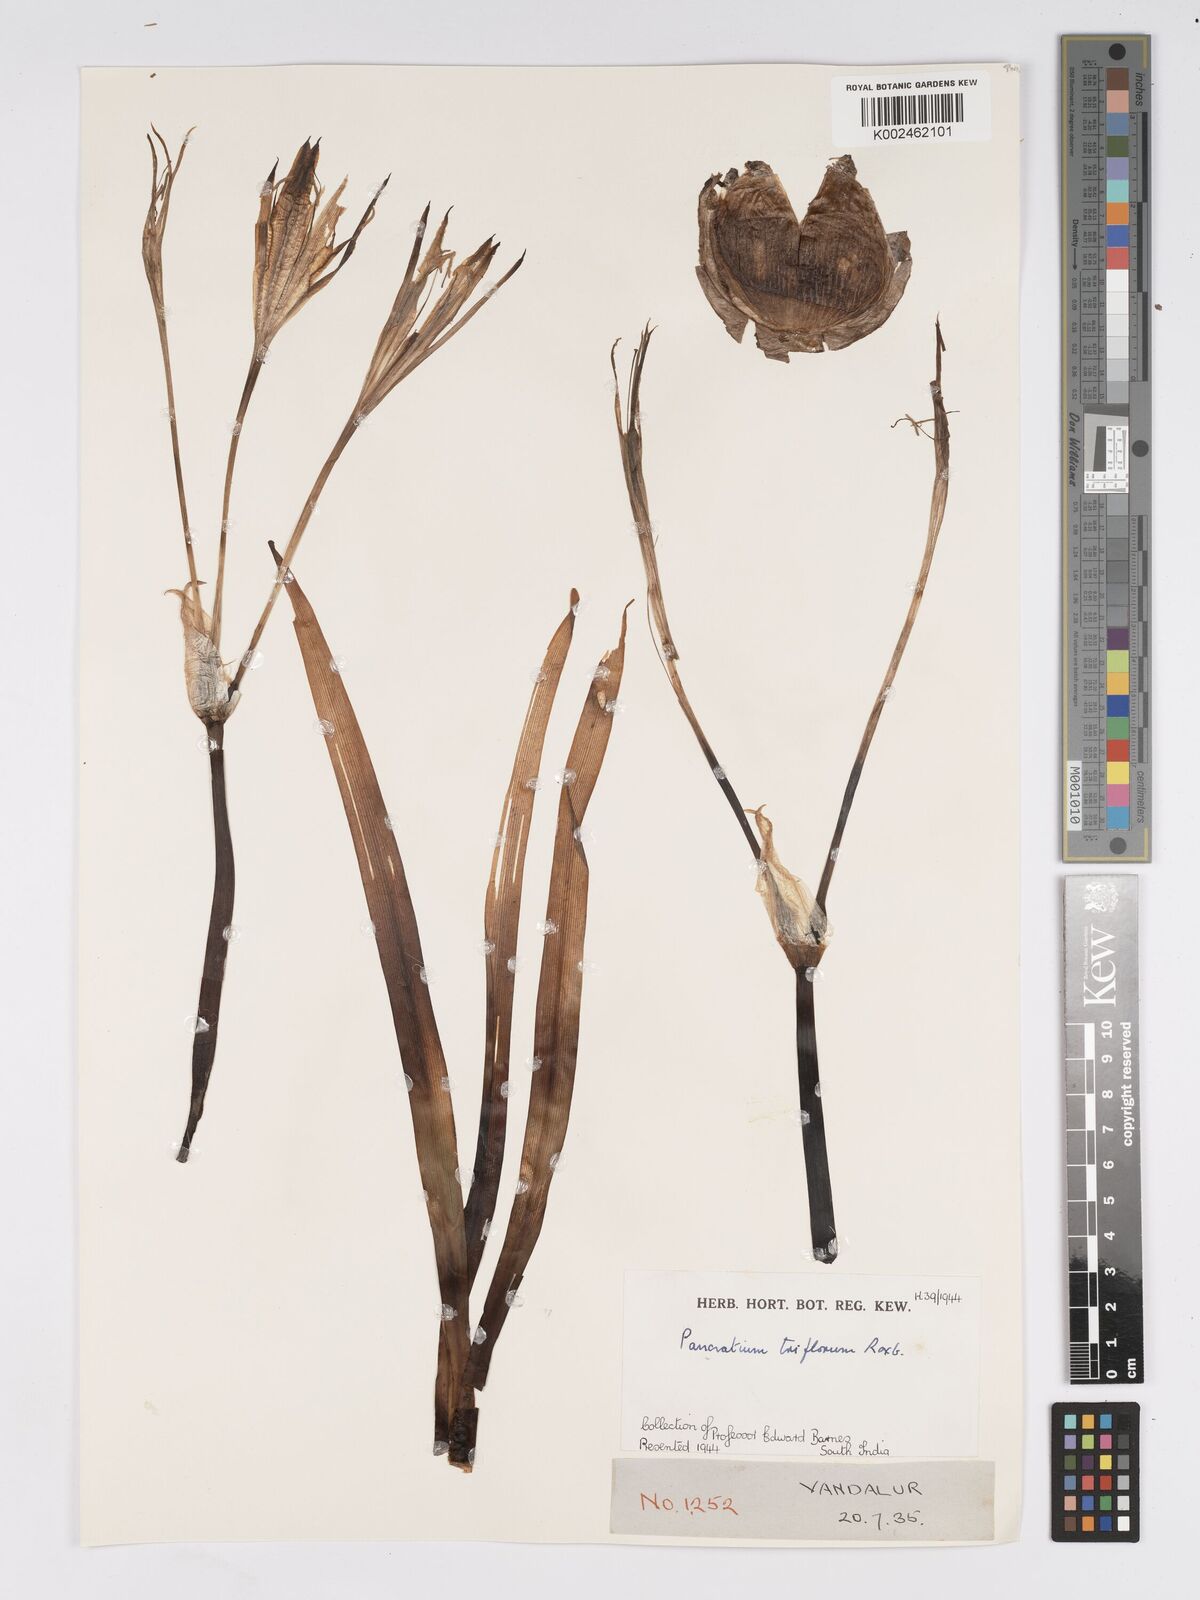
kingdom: Plantae
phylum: Tracheophyta
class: Liliopsida
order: Asparagales
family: Amaryllidaceae
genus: Pancratium
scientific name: Pancratium triflorum
